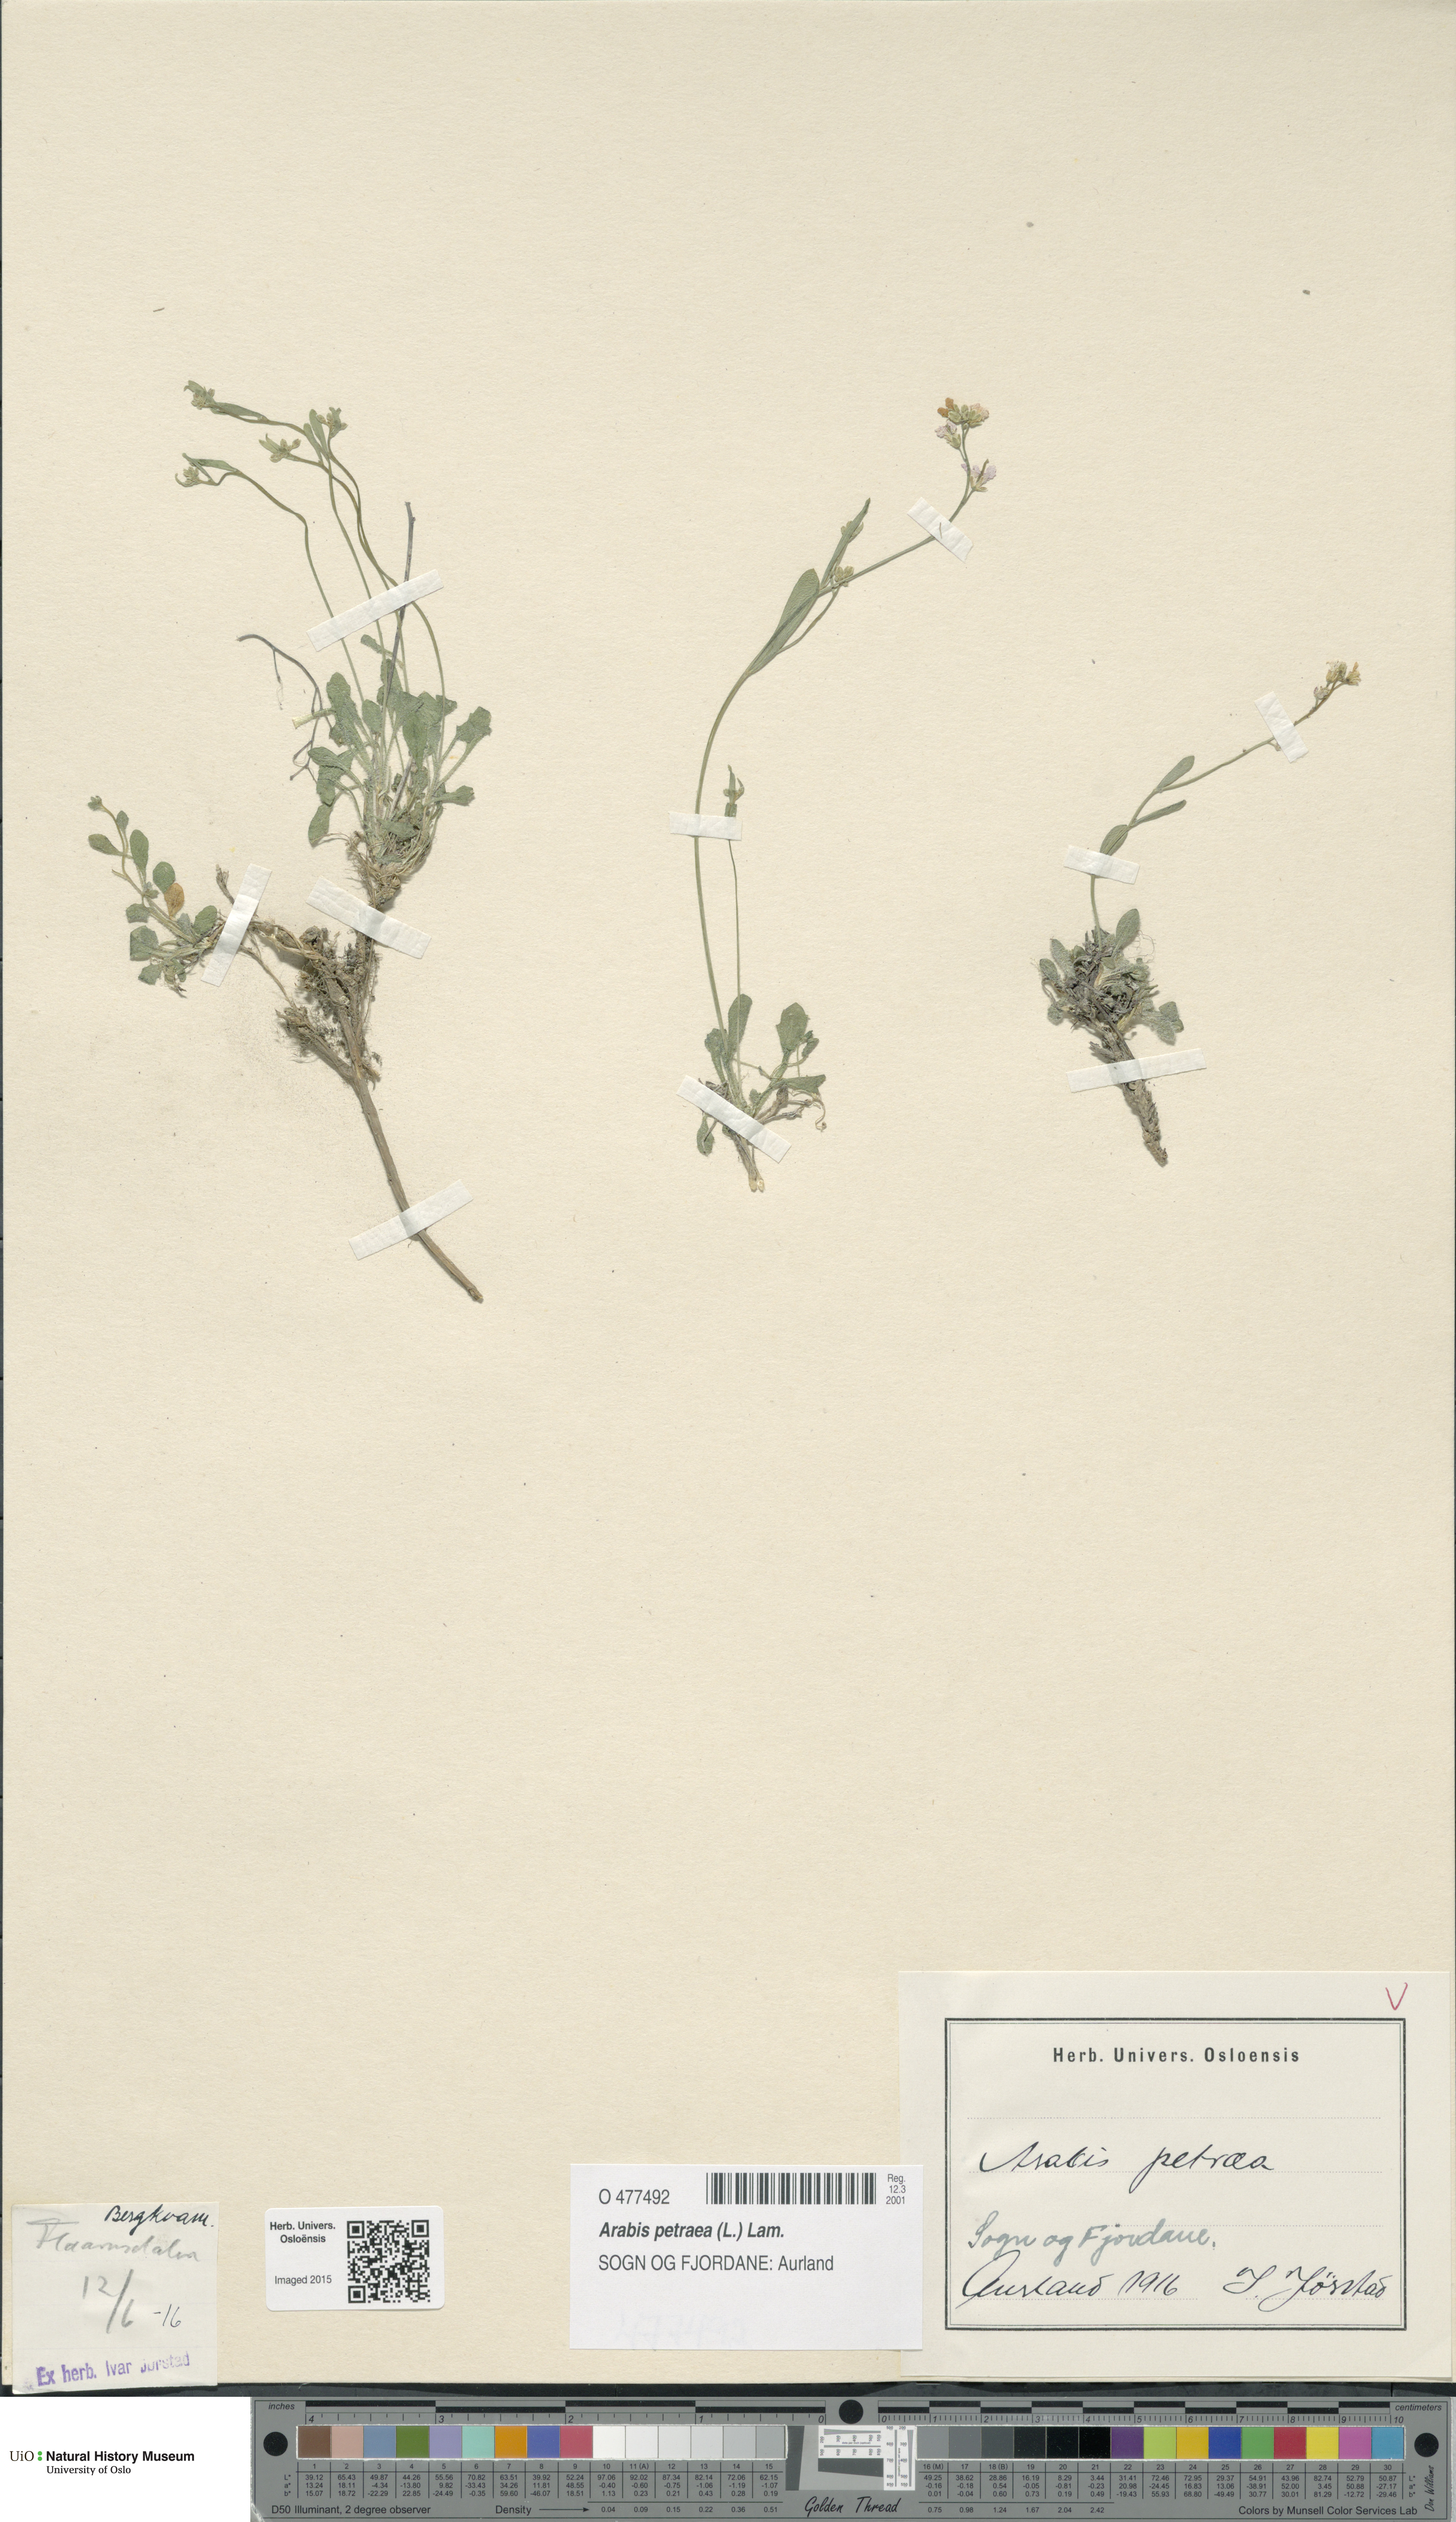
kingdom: Plantae
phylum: Tracheophyta
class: Magnoliopsida
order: Brassicales
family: Brassicaceae
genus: Arabidopsis
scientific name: Arabidopsis petraea
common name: Northern rock-cress
